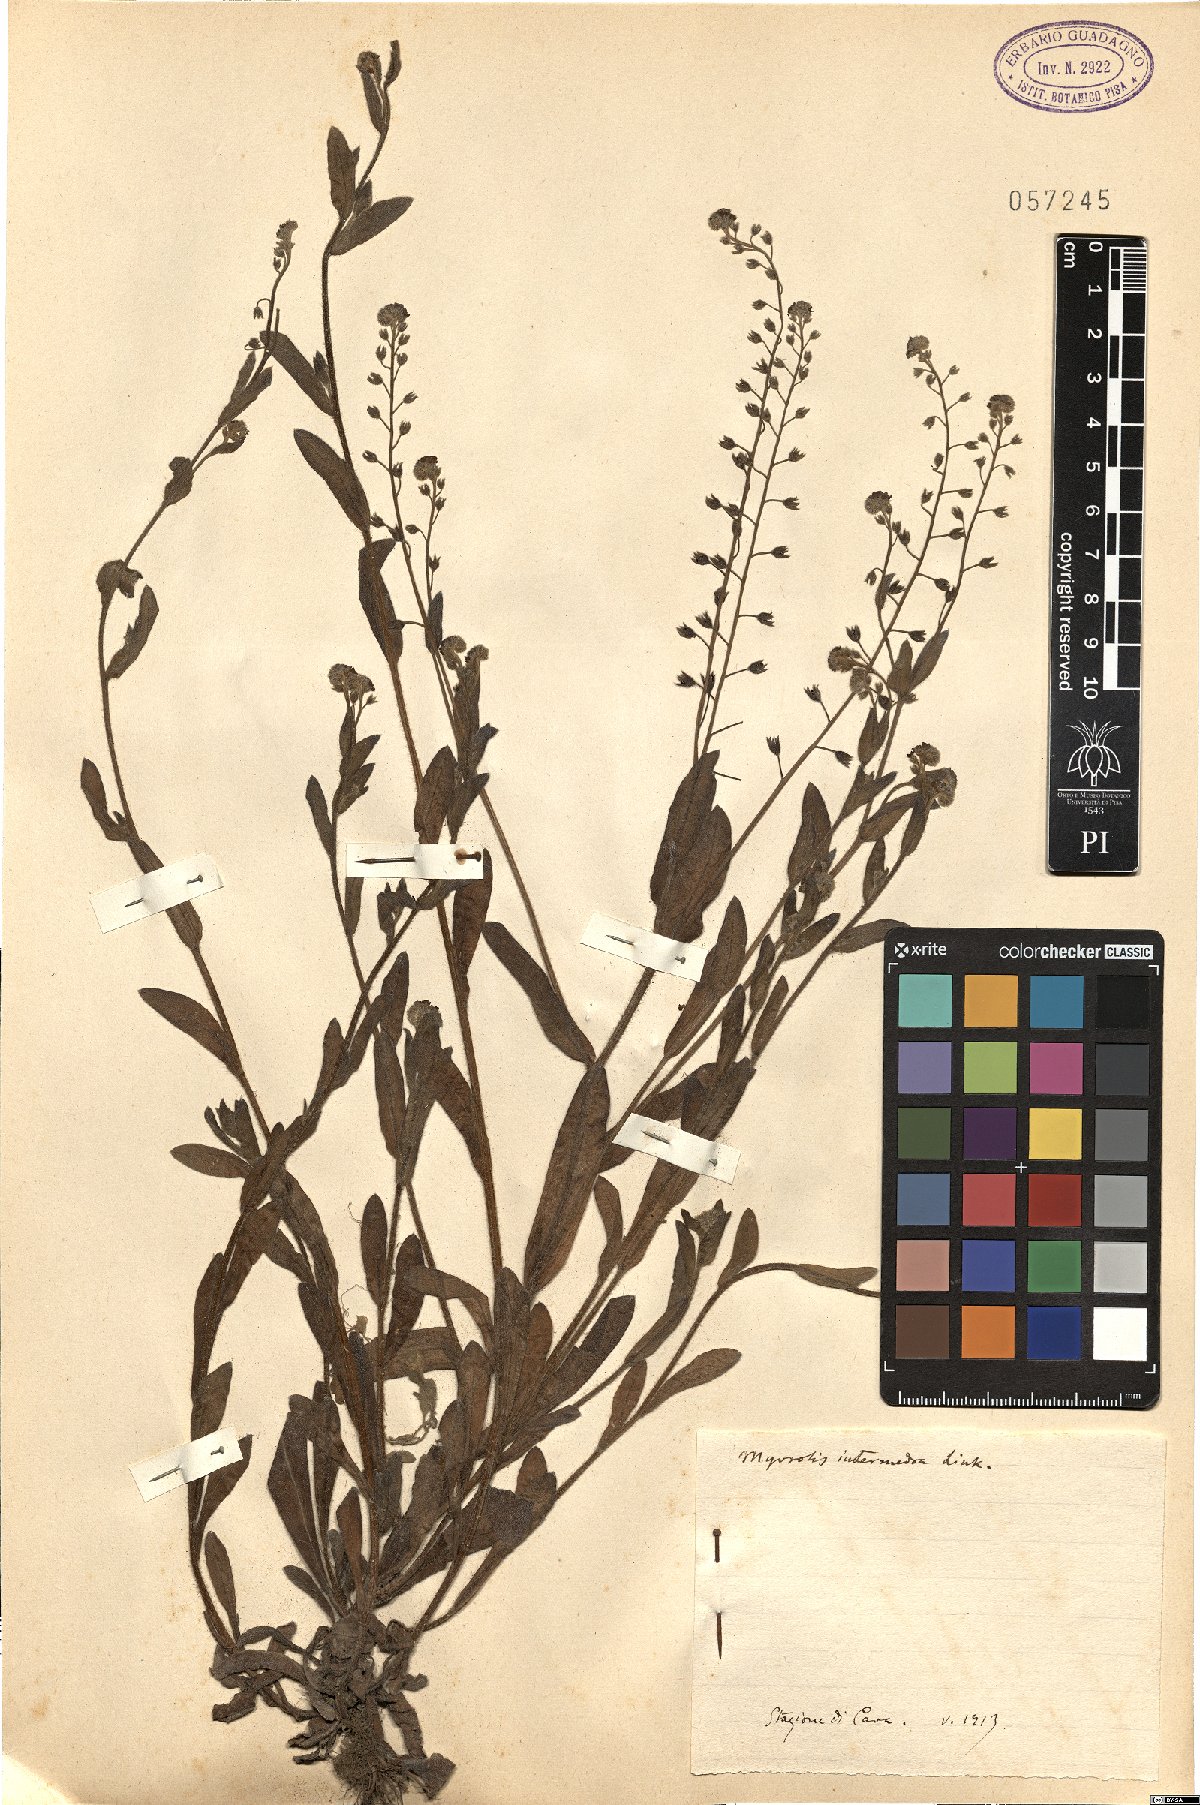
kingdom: Plantae
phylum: Tracheophyta
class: Magnoliopsida
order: Boraginales
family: Boraginaceae
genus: Myosotis
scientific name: Myosotis arvensis
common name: Field forget-me-not
